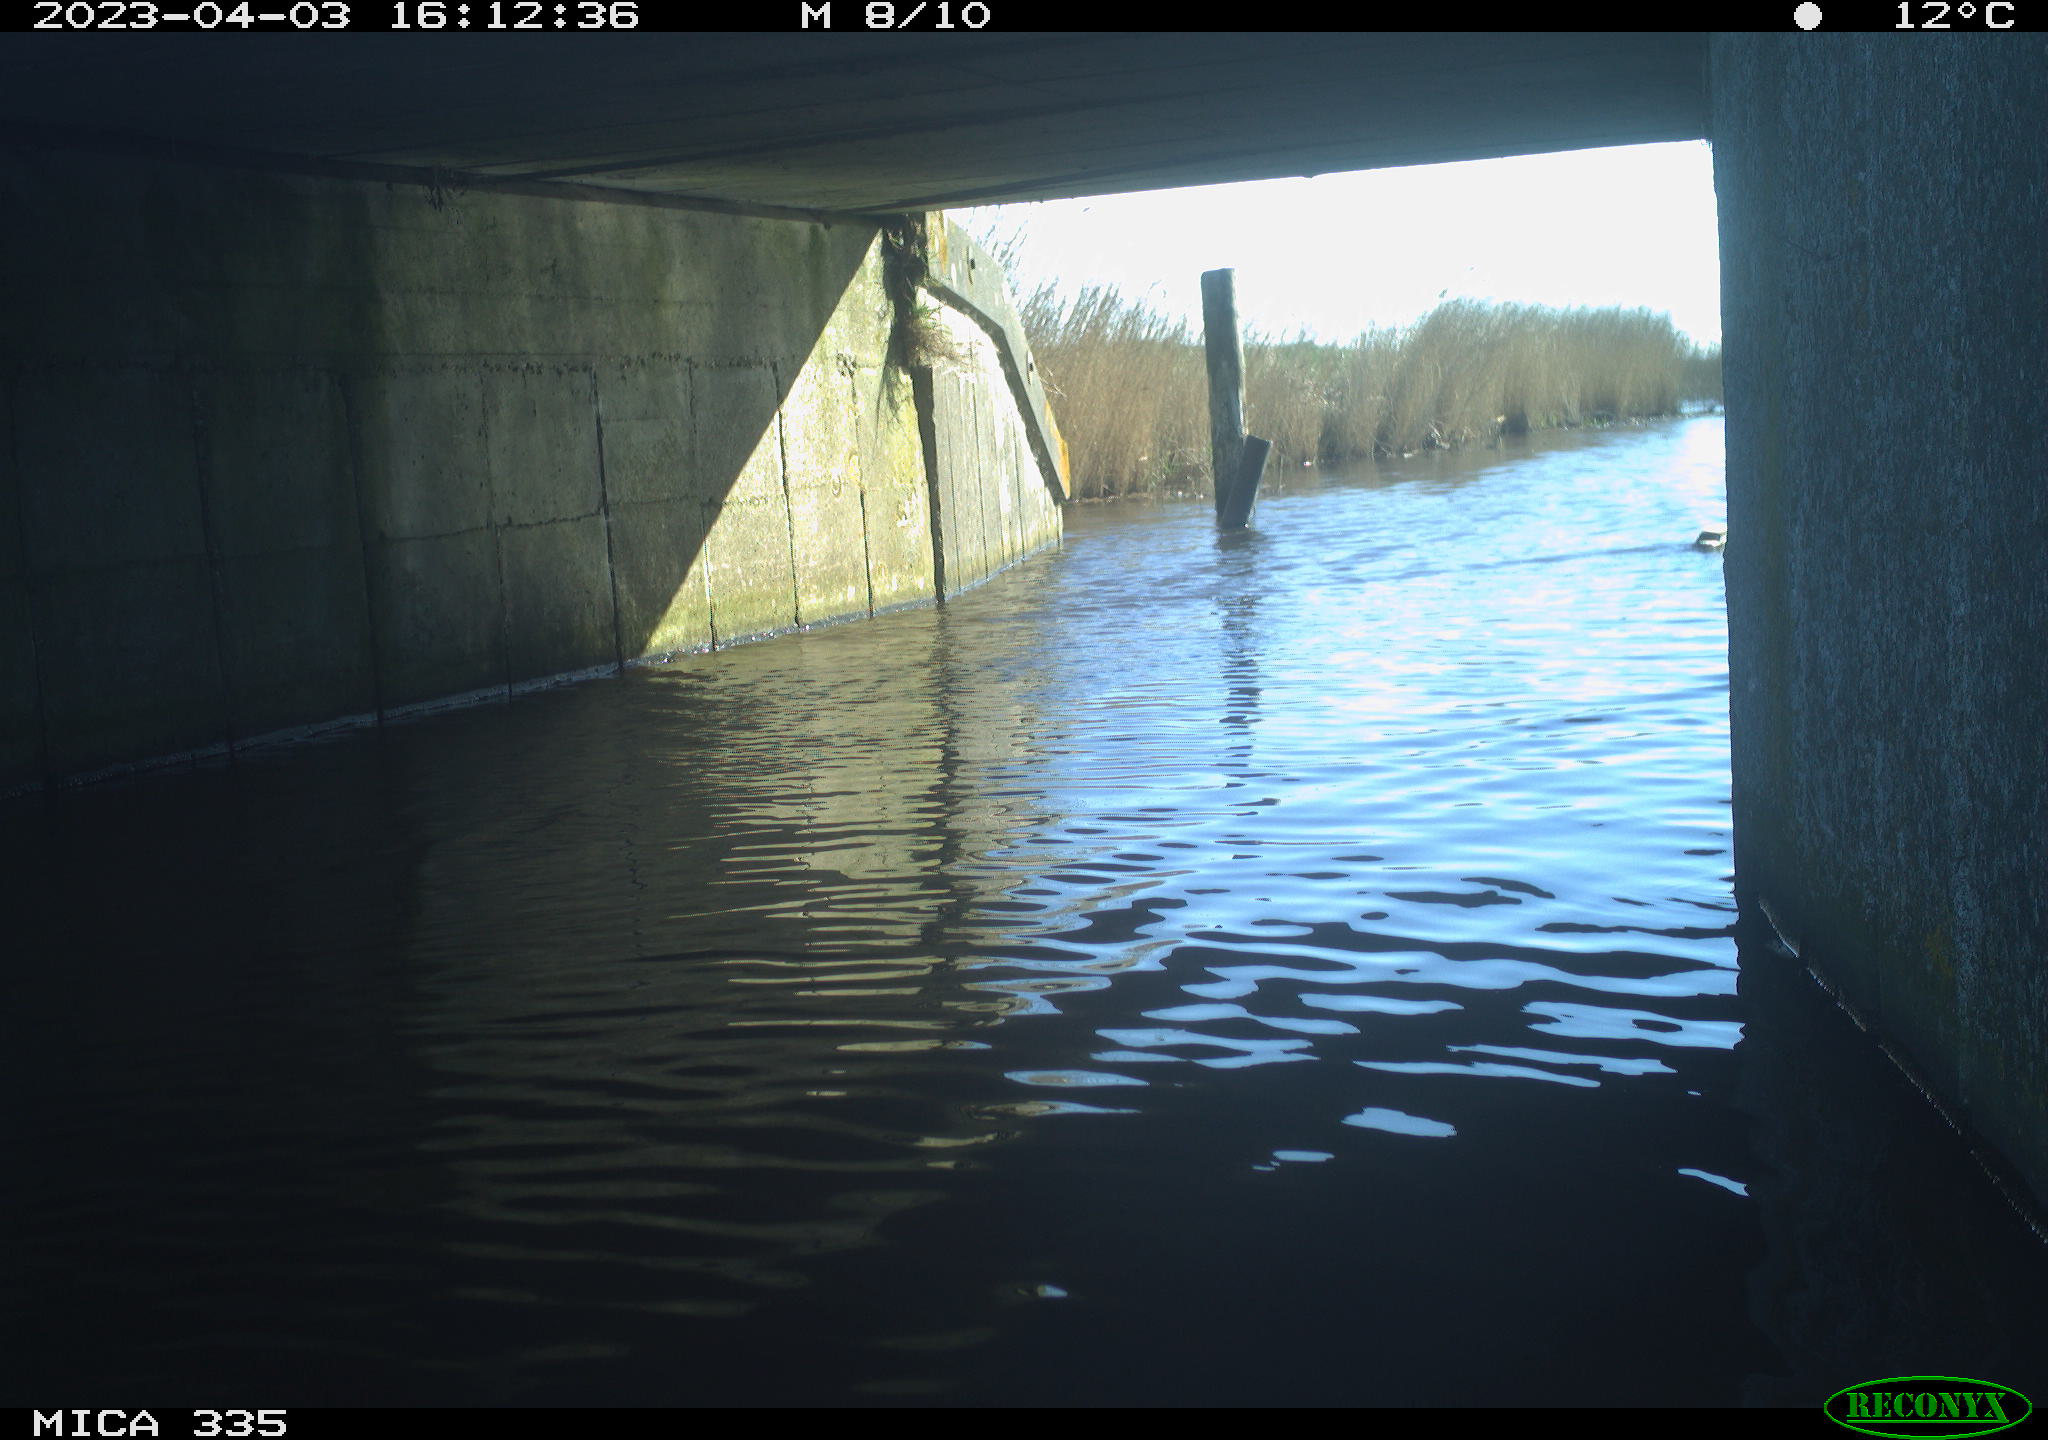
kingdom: Animalia
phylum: Chordata
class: Aves
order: Anseriformes
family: Anatidae
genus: Anas
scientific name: Anas
